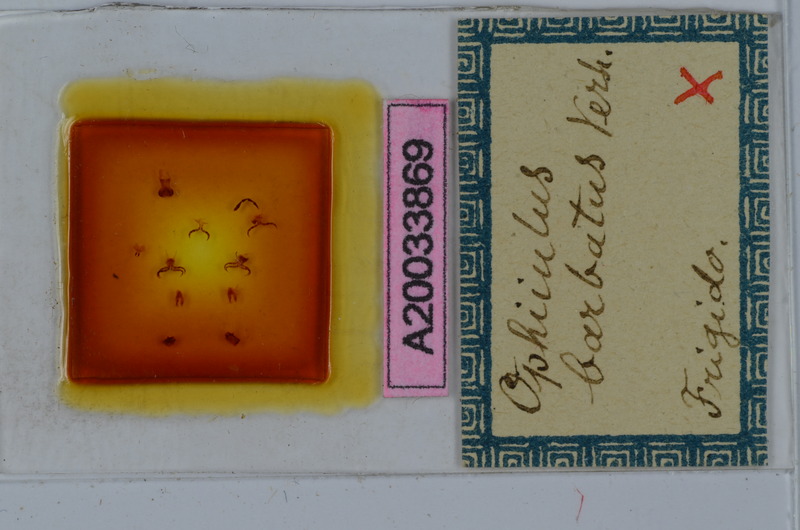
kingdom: Animalia
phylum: Arthropoda
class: Diplopoda
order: Julida
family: Julidae
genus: Ophyiulus
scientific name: Ophyiulus chilopogon
